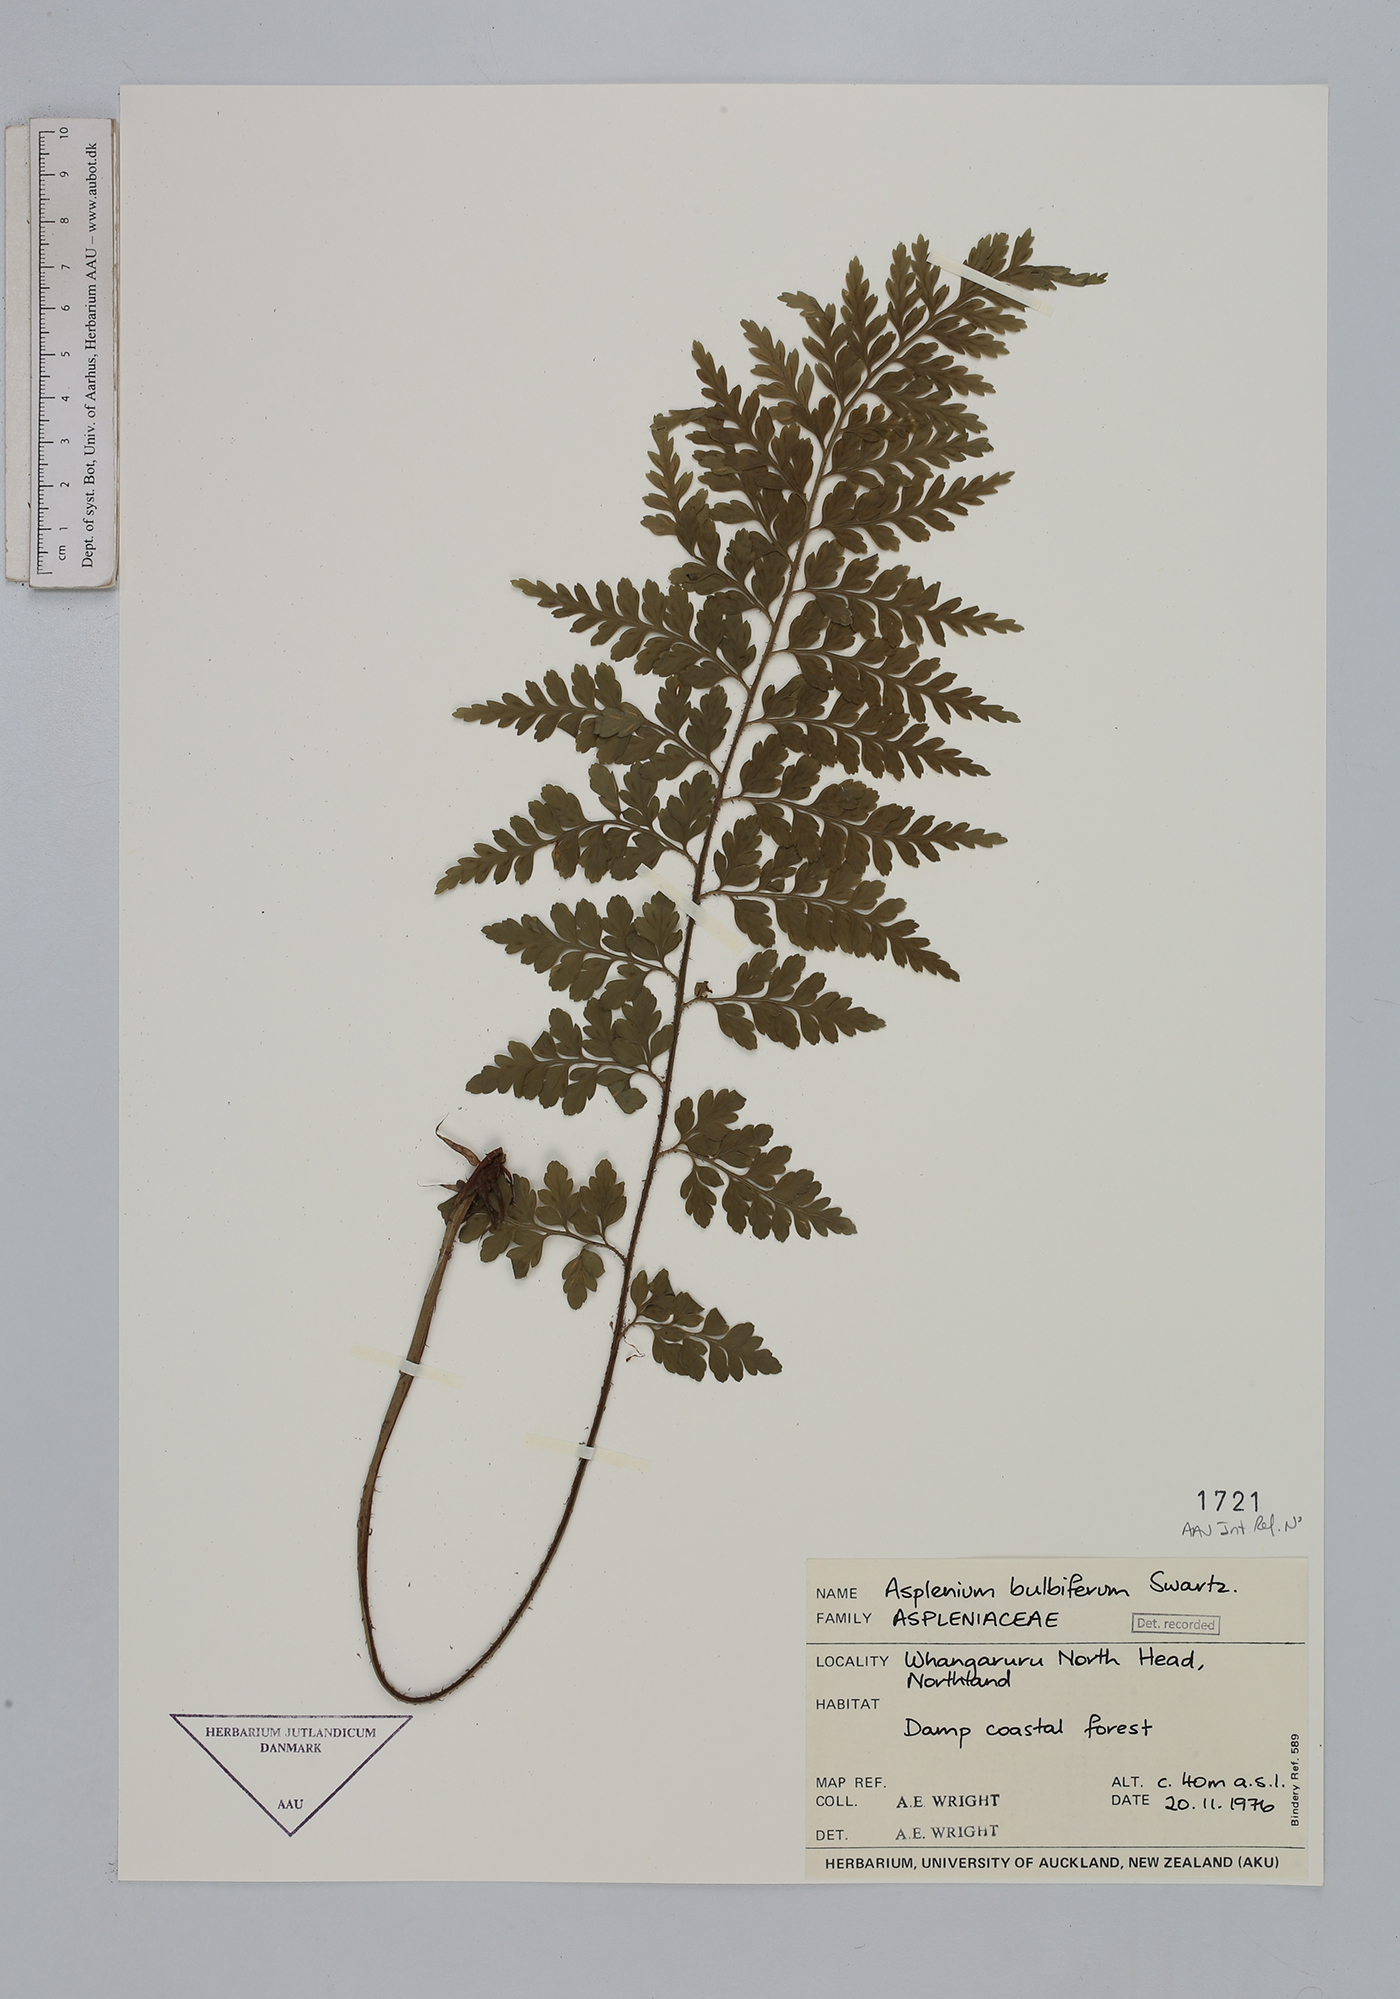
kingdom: Plantae
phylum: Tracheophyta
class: Polypodiopsida
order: Polypodiales
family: Aspleniaceae
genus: Asplenium
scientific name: Asplenium bulbiferum
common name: Mother fern
